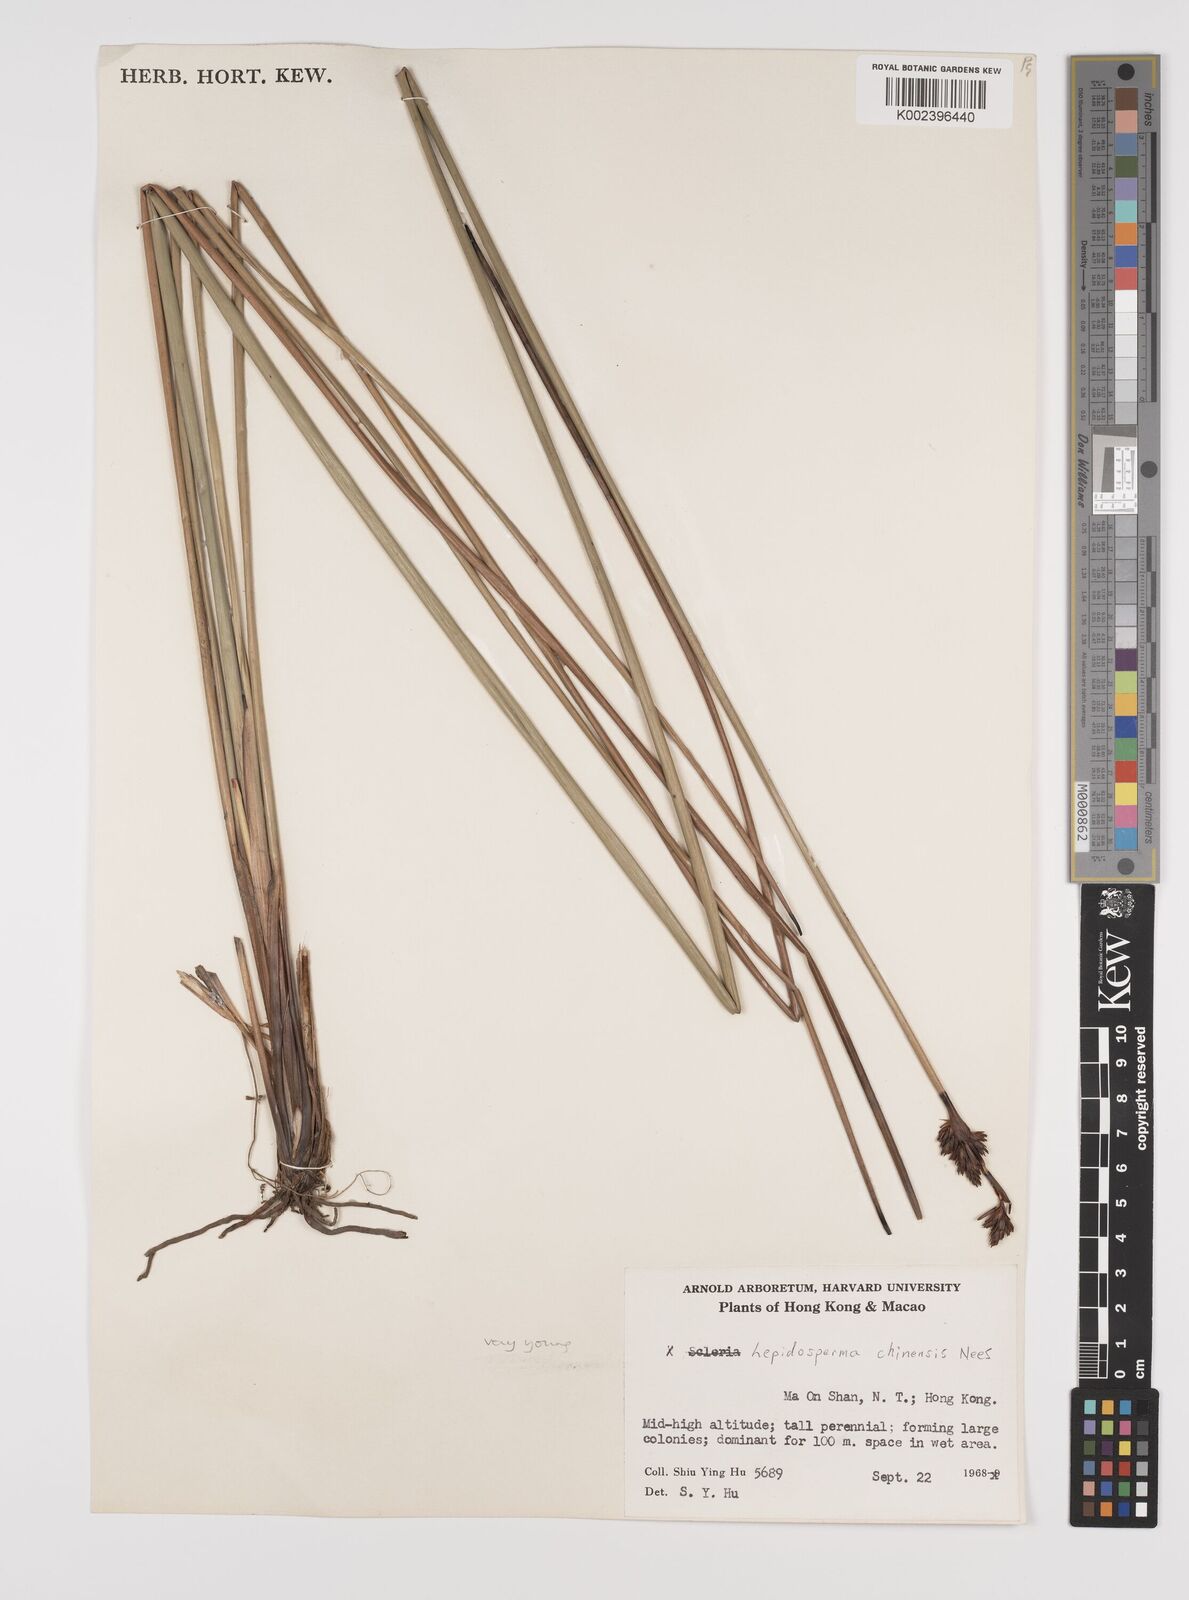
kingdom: Plantae
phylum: Tracheophyta
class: Liliopsida
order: Poales
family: Cyperaceae
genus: Lepidosperma
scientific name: Lepidosperma chinense
